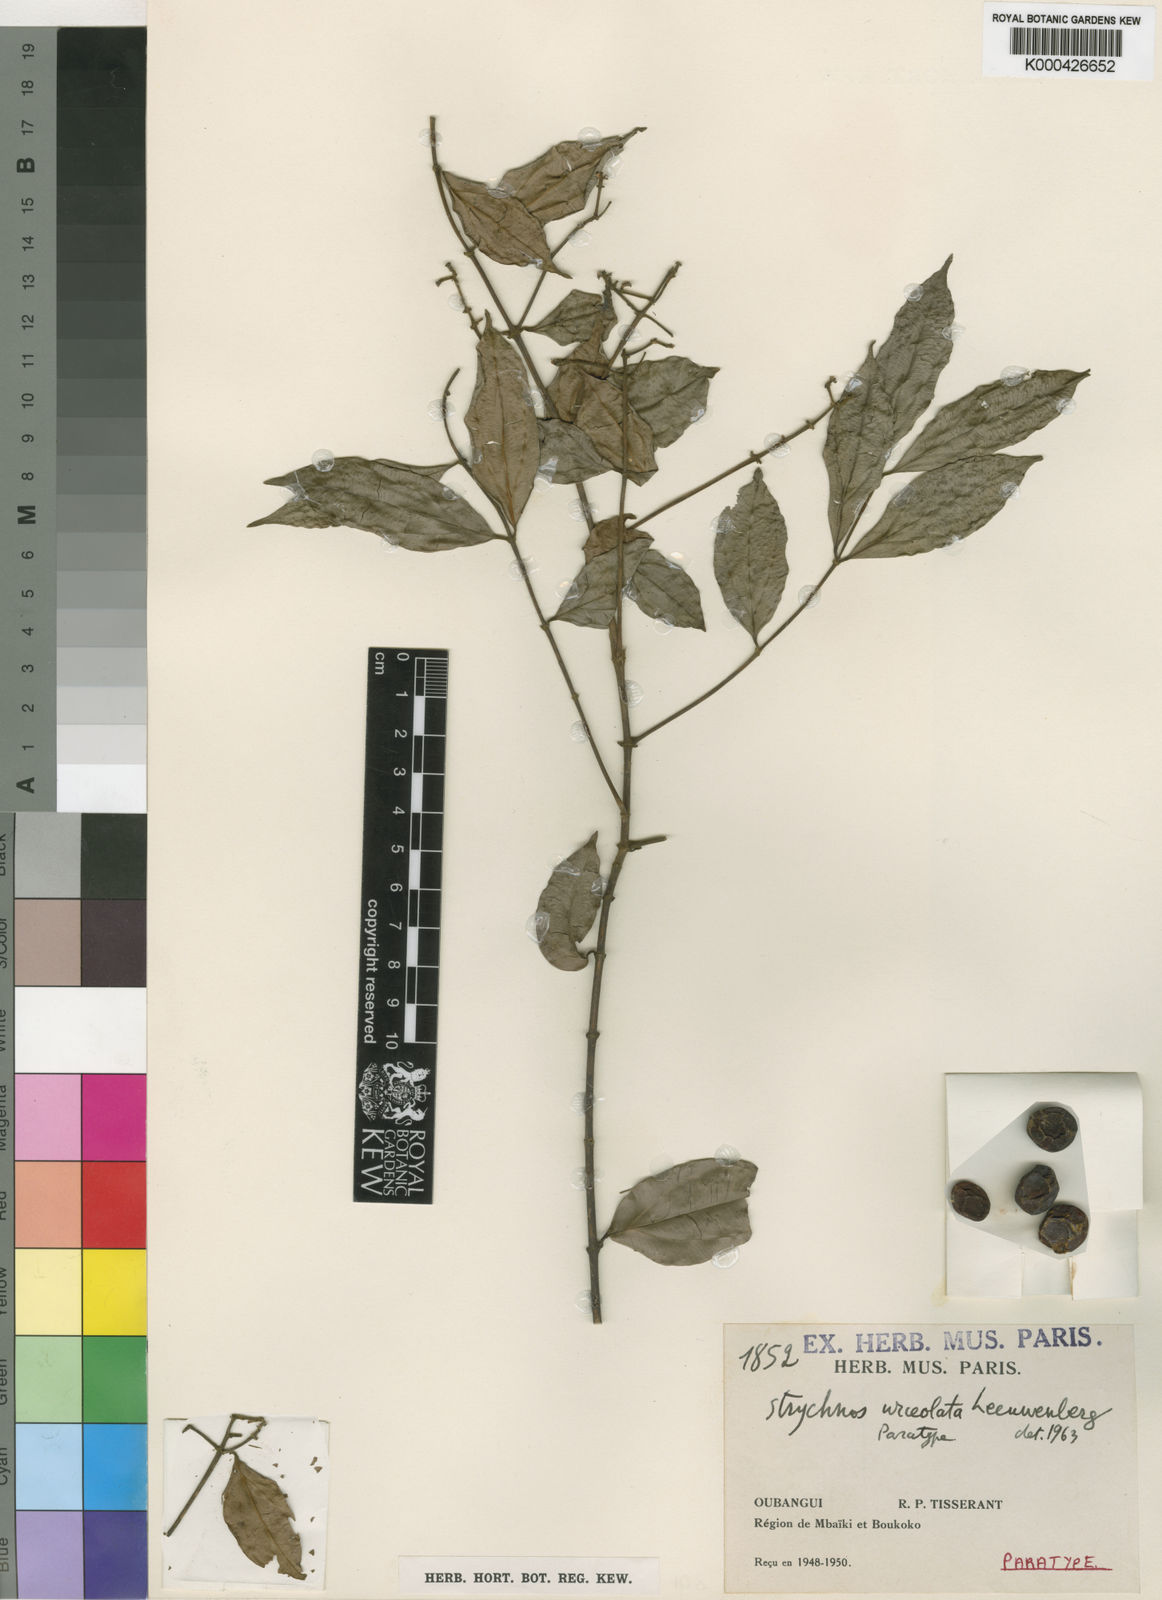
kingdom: Plantae
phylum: Tracheophyta
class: Magnoliopsida
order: Gentianales
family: Loganiaceae
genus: Strychnos
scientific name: Strychnos urceolata
